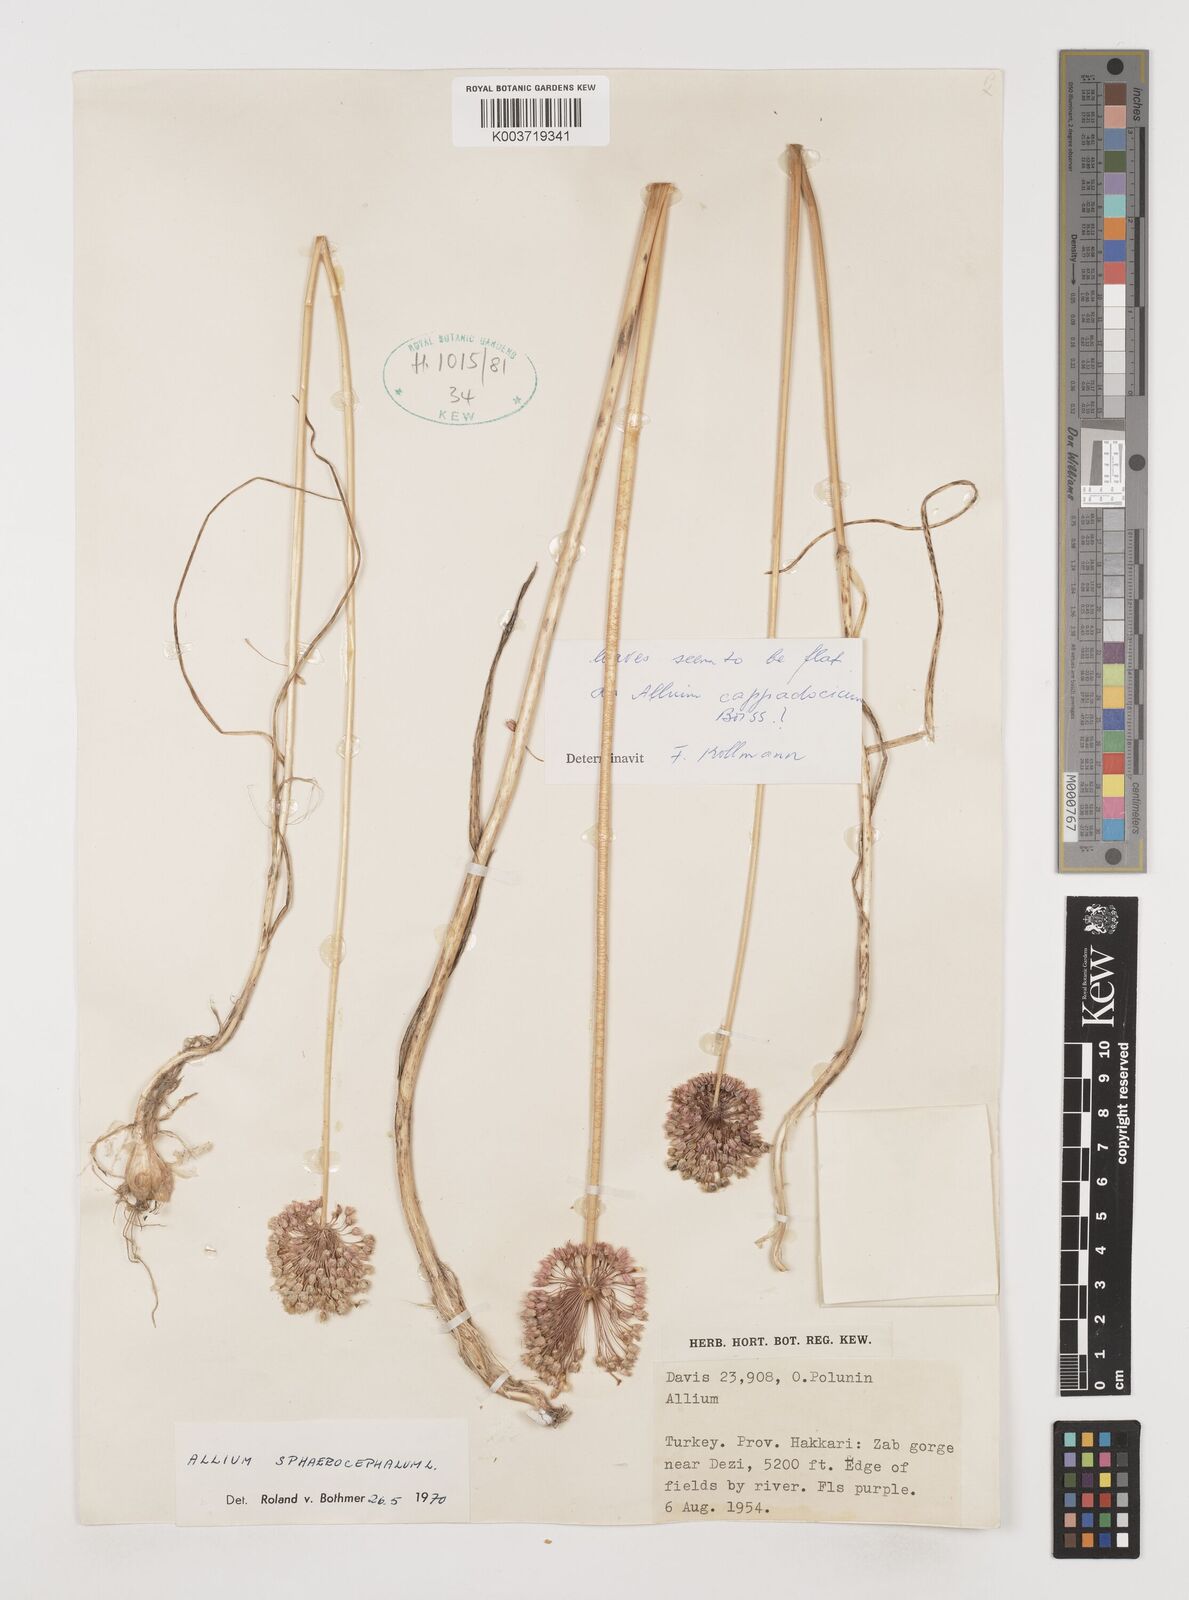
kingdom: Plantae
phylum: Tracheophyta
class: Liliopsida
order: Asparagales
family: Amaryllidaceae
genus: Allium
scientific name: Allium cappadocicum
